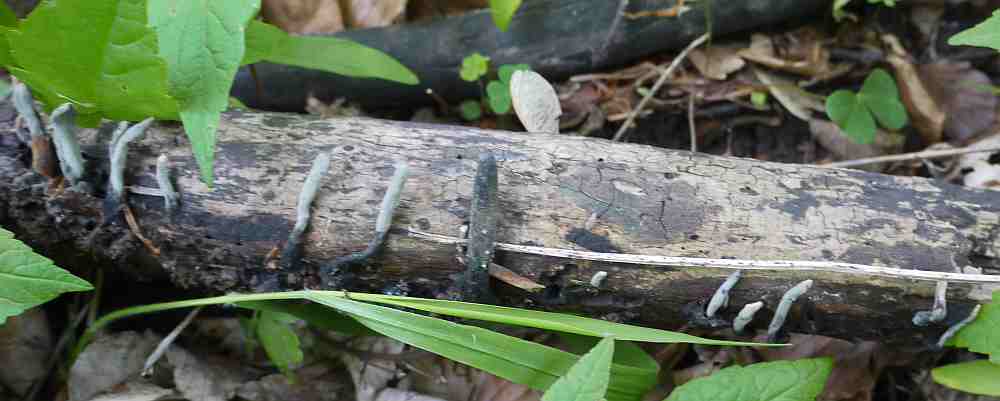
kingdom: Fungi
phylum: Ascomycota
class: Sordariomycetes
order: Xylariales
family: Xylariaceae
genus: Xylaria
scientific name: Xylaria longipes
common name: slank stødsvamp
